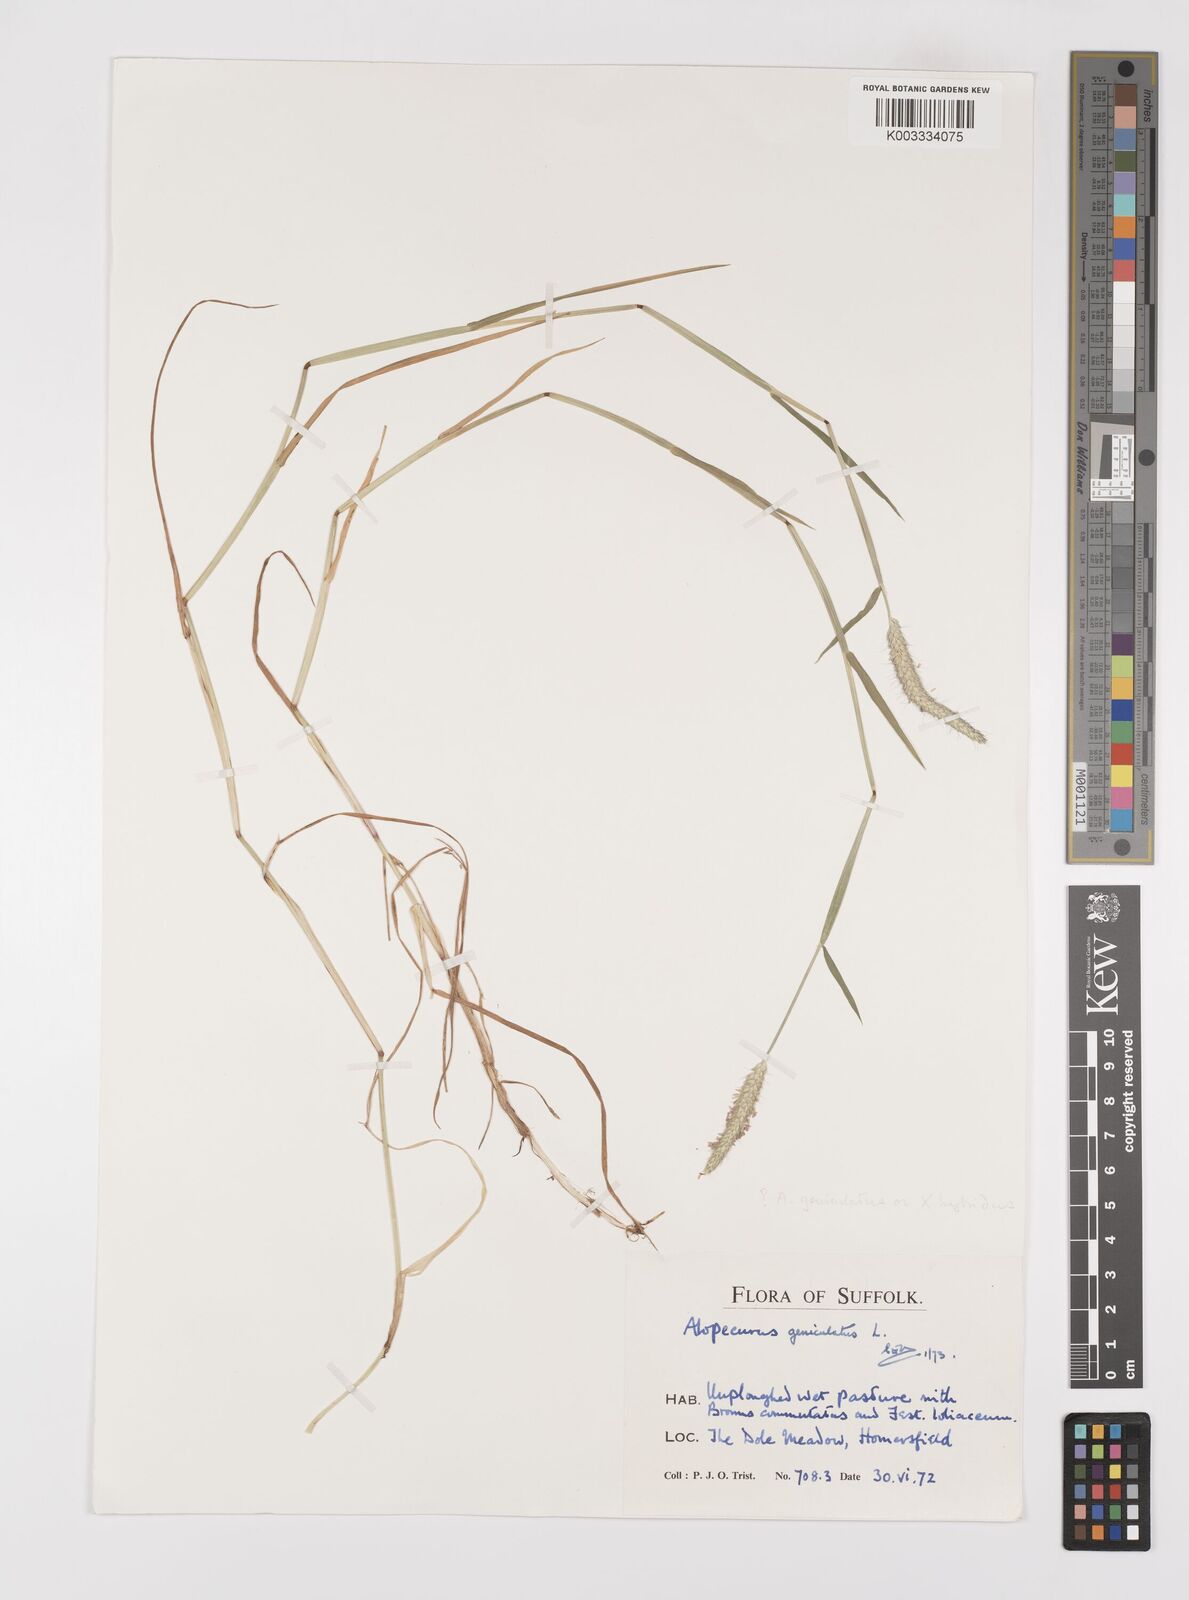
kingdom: Plantae
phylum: Tracheophyta
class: Liliopsida
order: Poales
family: Poaceae
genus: Alopecurus
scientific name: Alopecurus geniculatus
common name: Water foxtail
